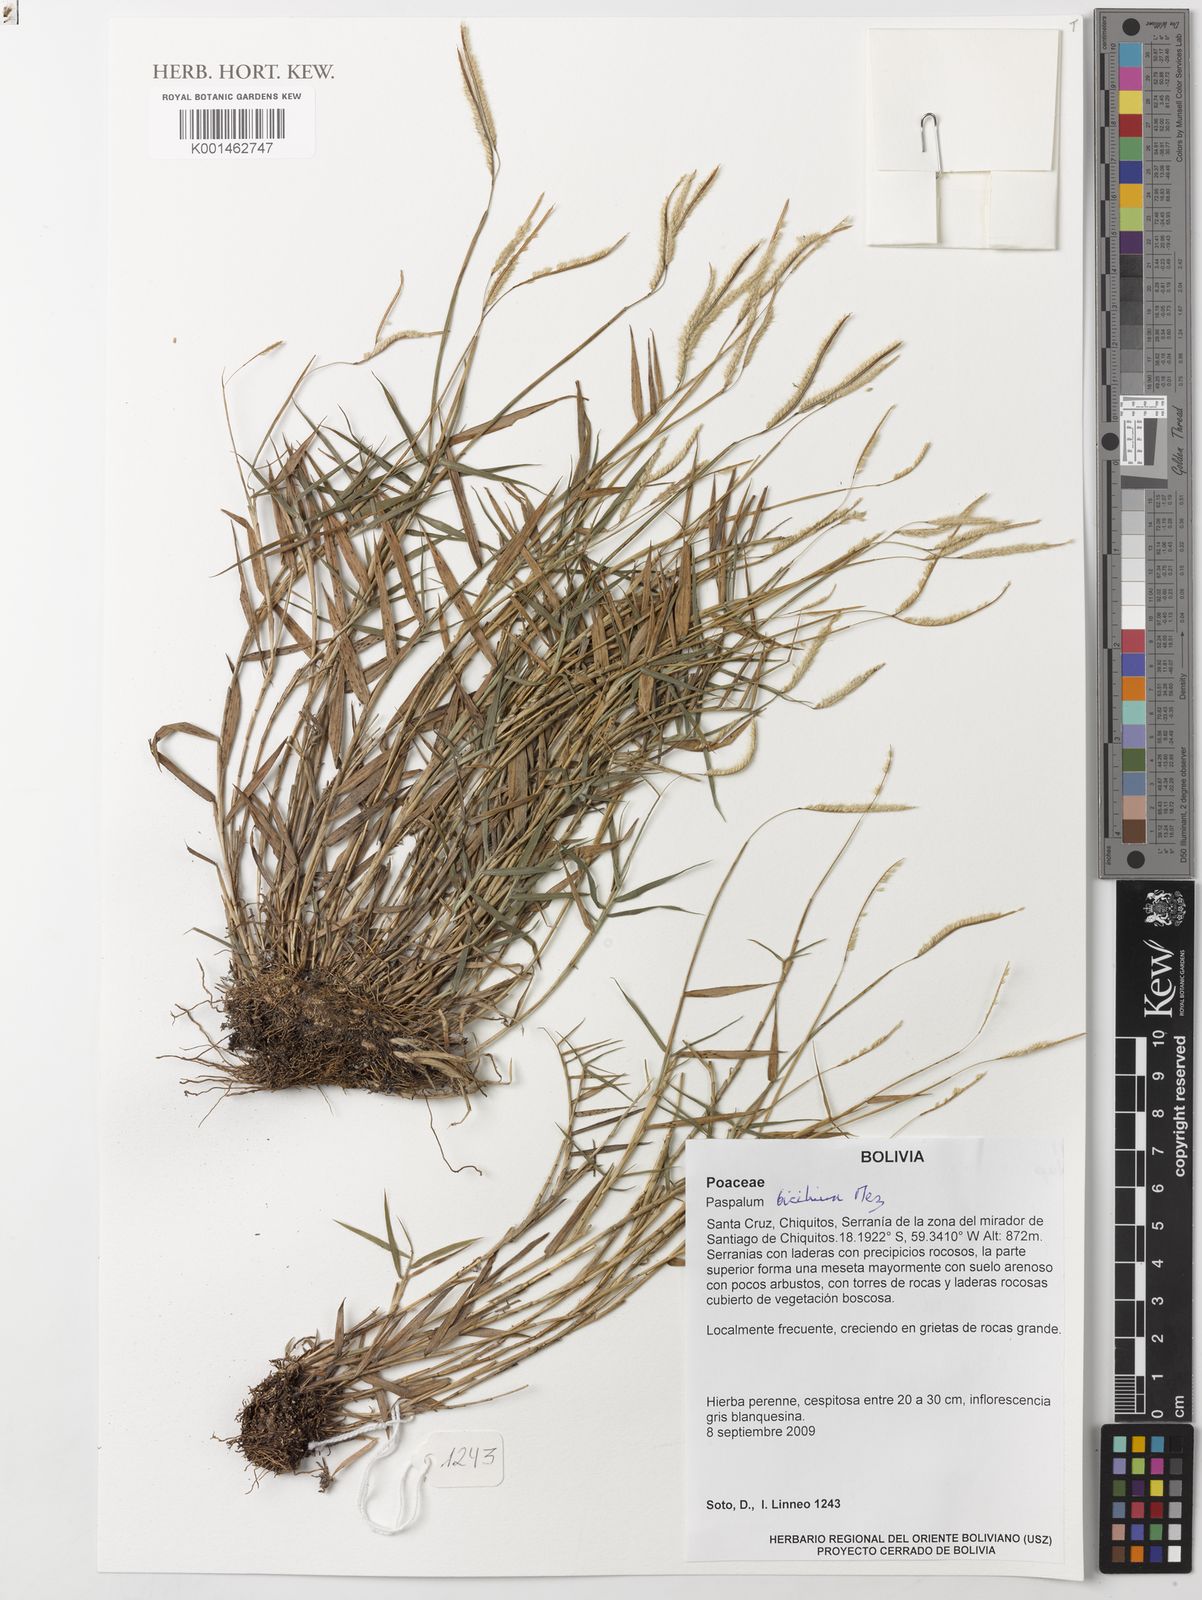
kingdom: Plantae
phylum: Tracheophyta
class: Liliopsida
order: Poales
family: Poaceae
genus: Paspalum
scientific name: Paspalum polyphyllum
